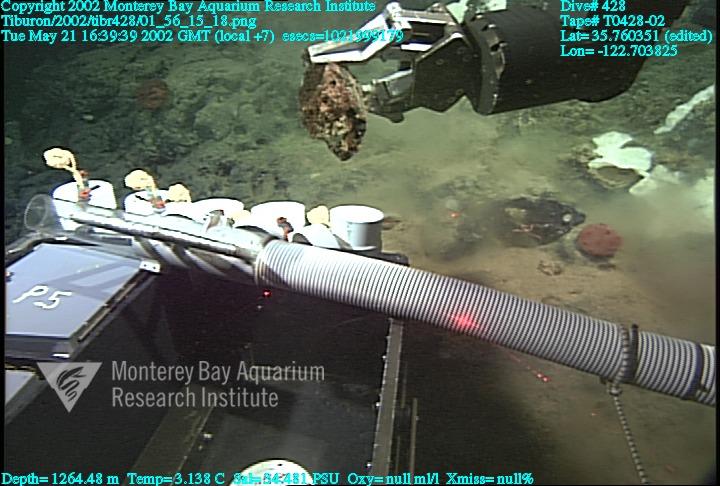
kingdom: Animalia
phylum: Porifera
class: Hexactinellida
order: Sceptrulophora
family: Euretidae
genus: Chonelasma
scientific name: Chonelasma
